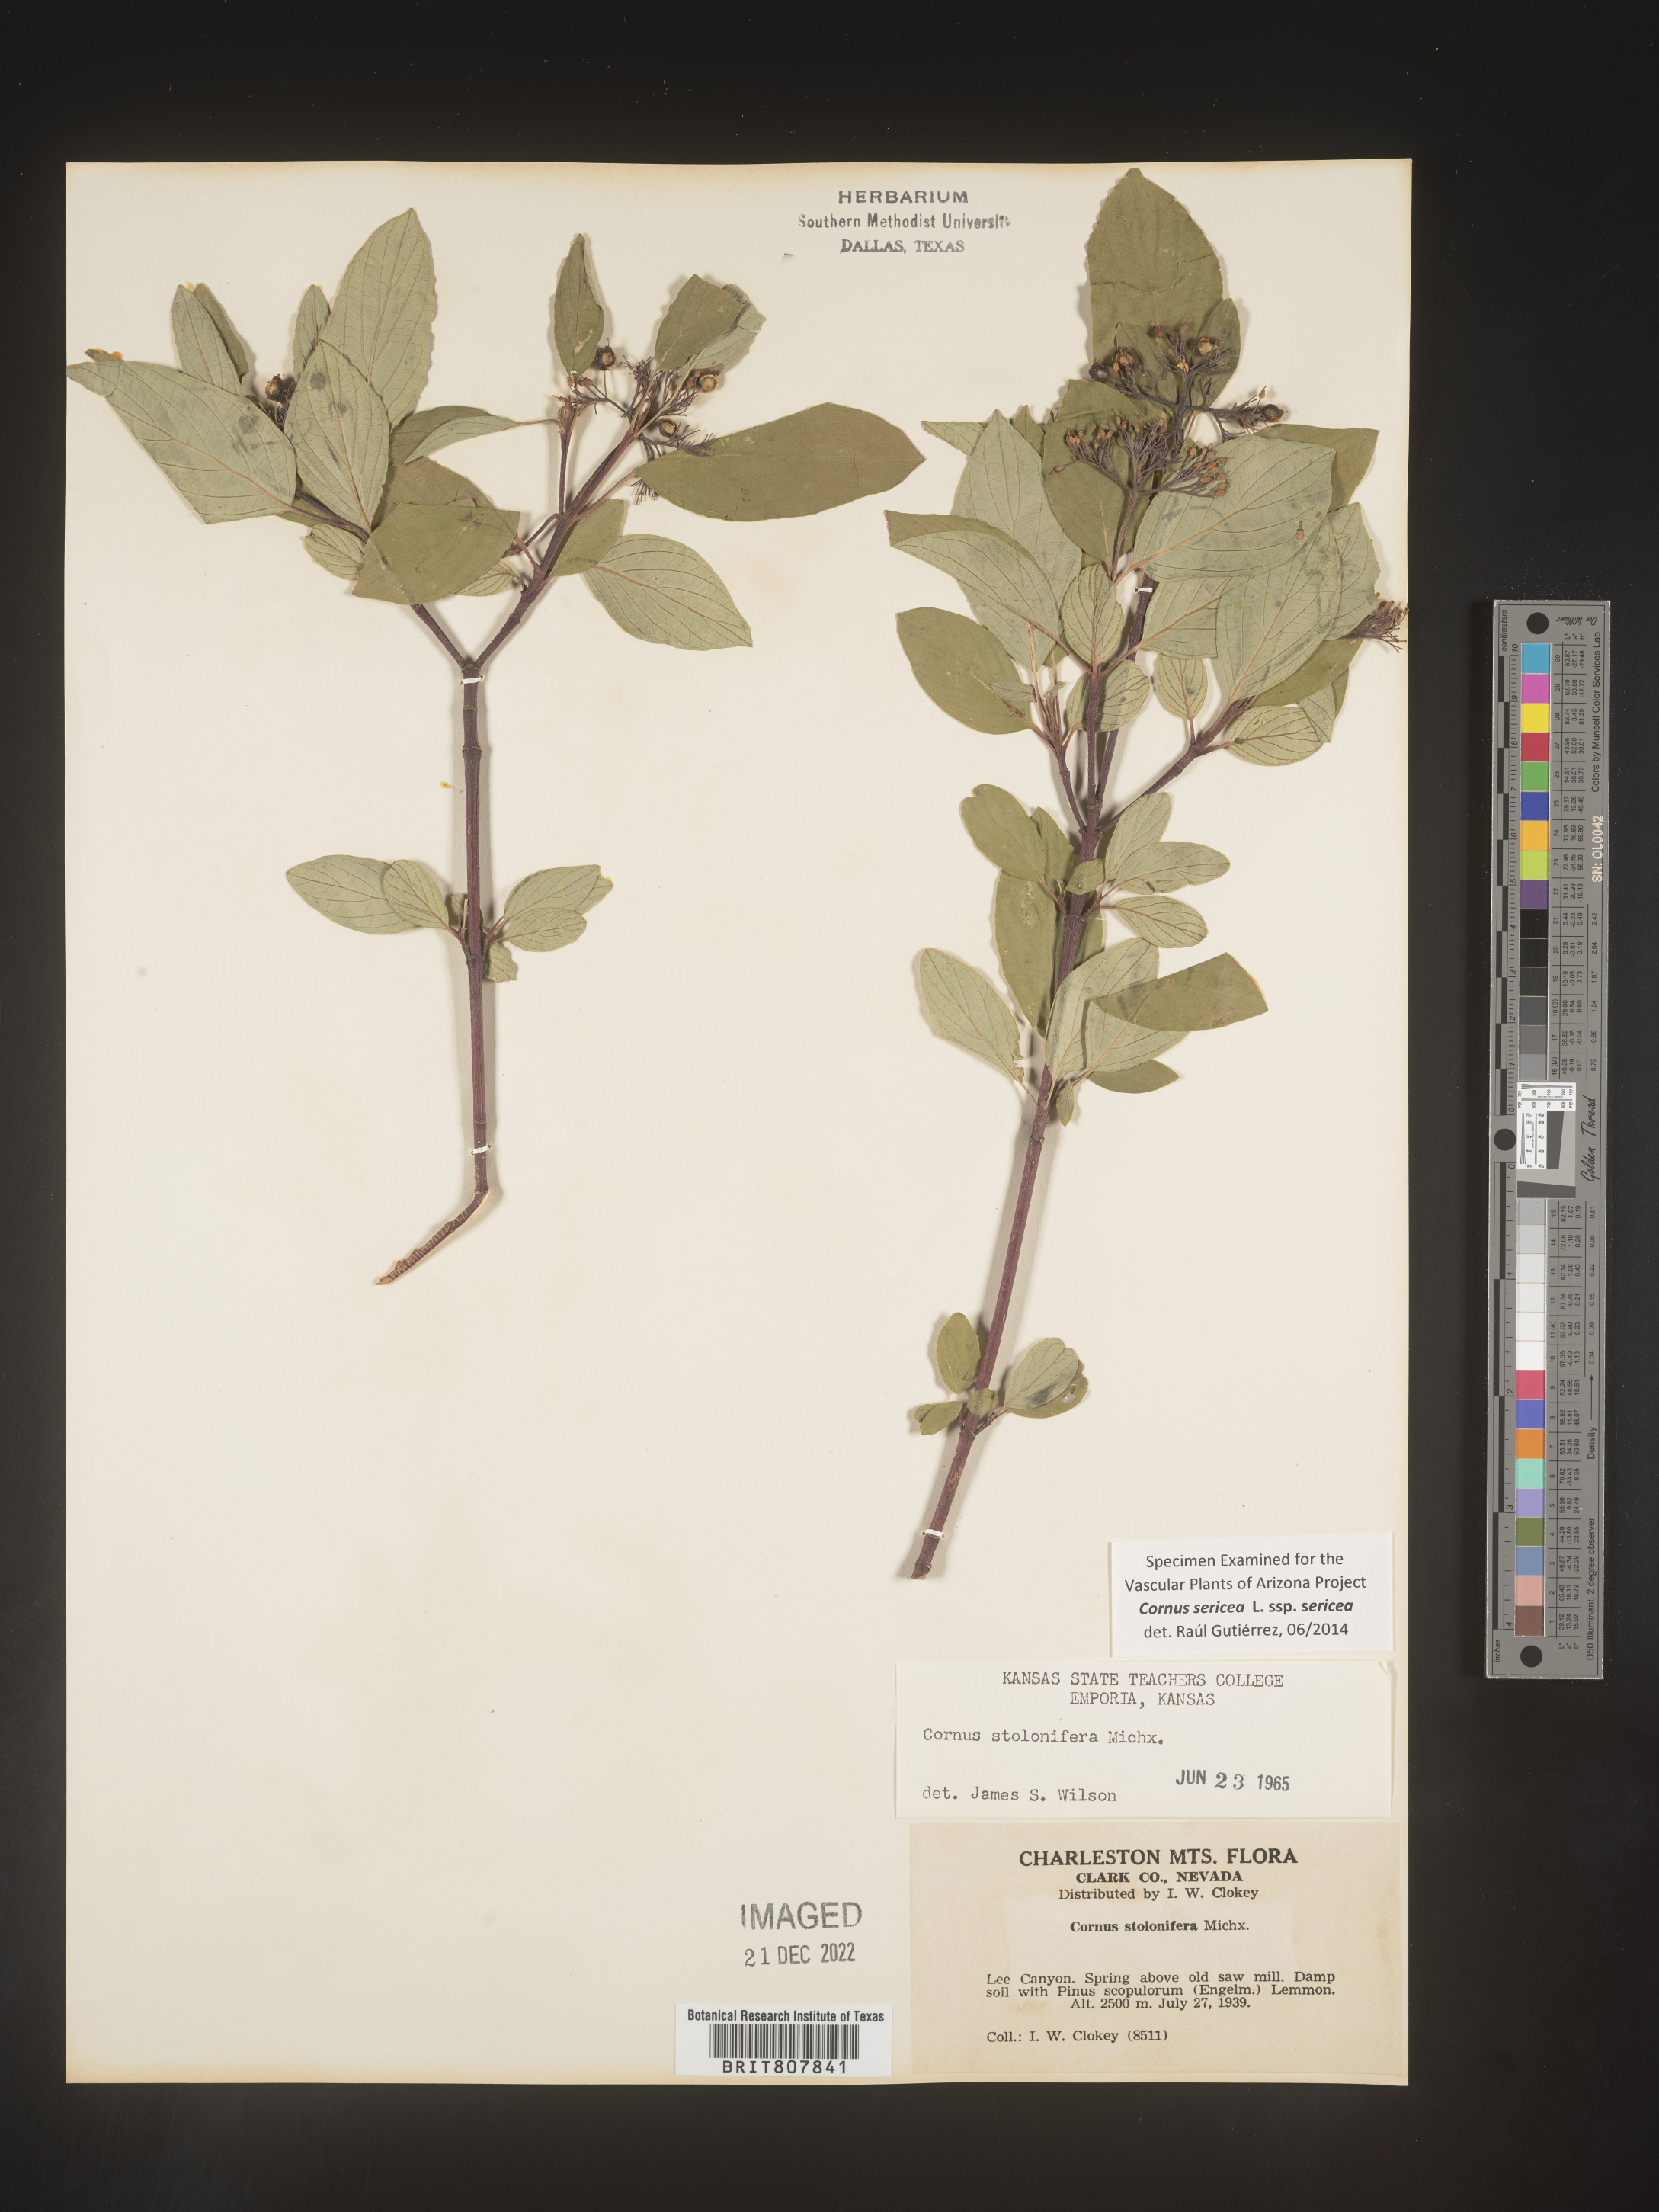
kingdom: Plantae
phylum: Tracheophyta
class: Magnoliopsida
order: Cornales
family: Cornaceae
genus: Cornus
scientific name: Cornus
